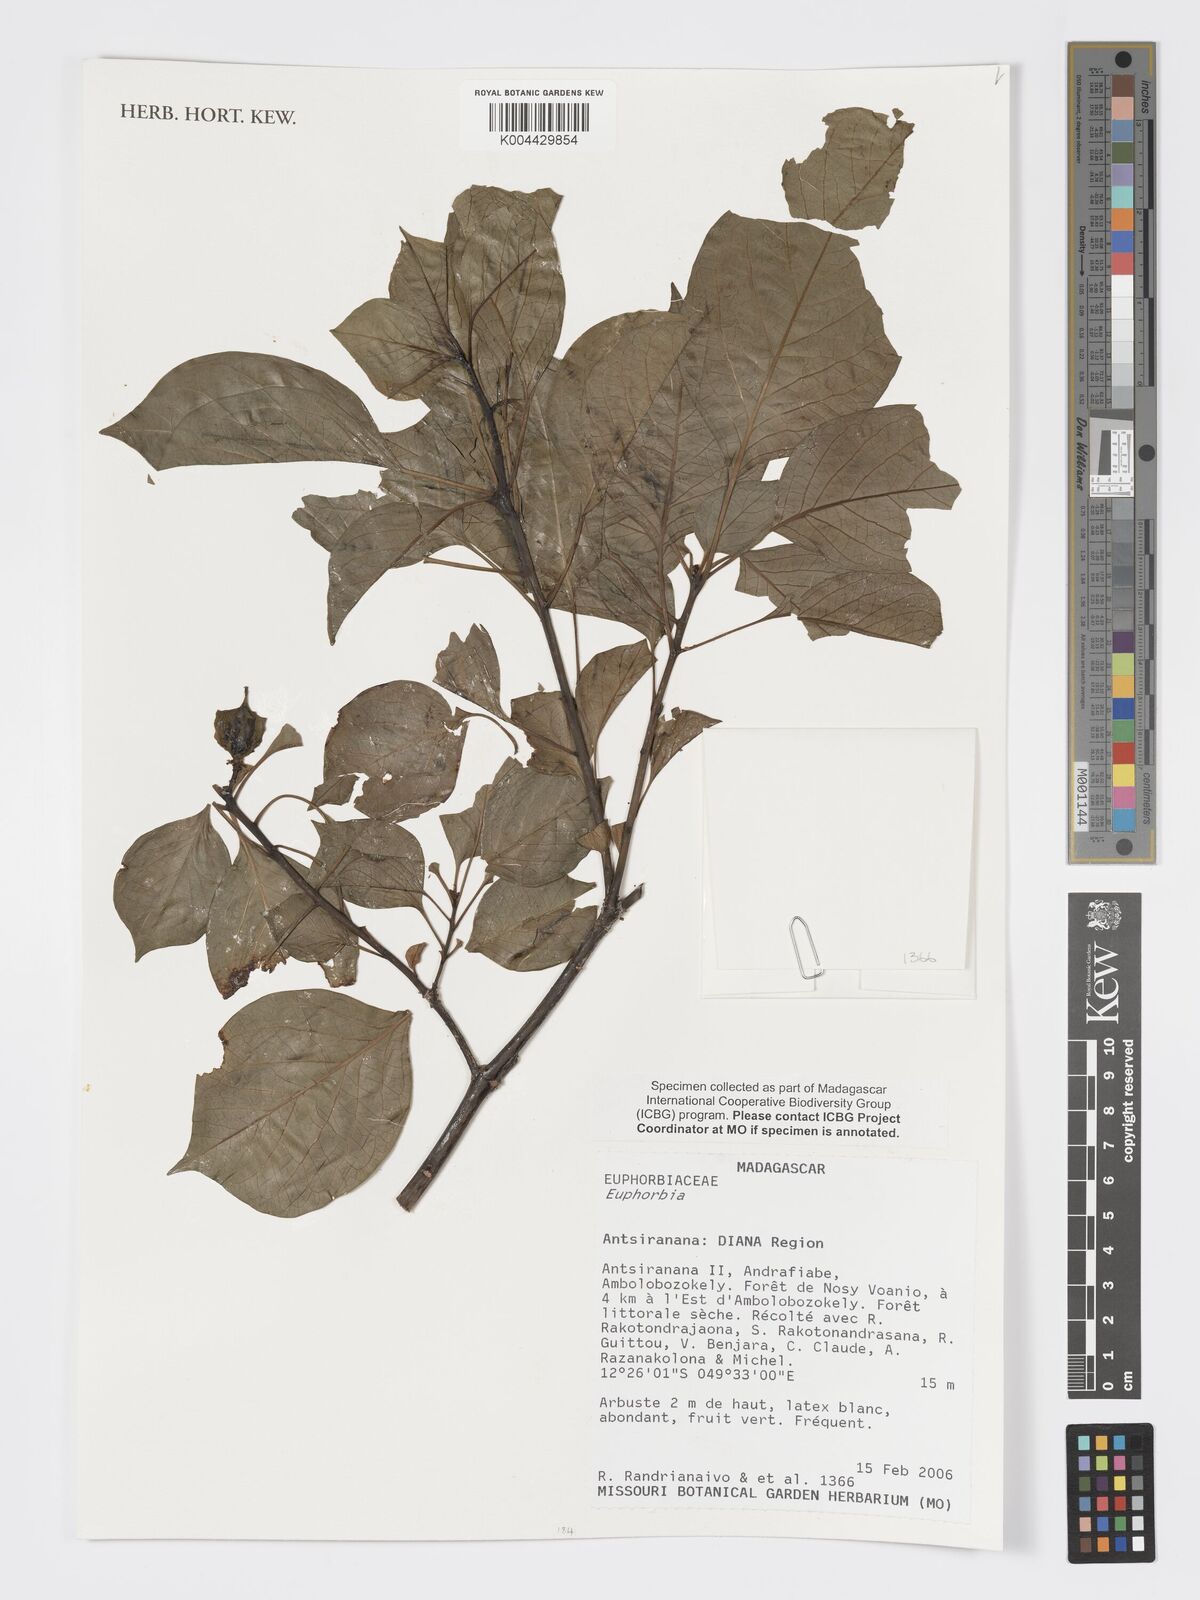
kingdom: Plantae
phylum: Tracheophyta
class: Magnoliopsida
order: Malpighiales
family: Euphorbiaceae
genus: Euphorbia
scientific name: Euphorbia tetraptera
